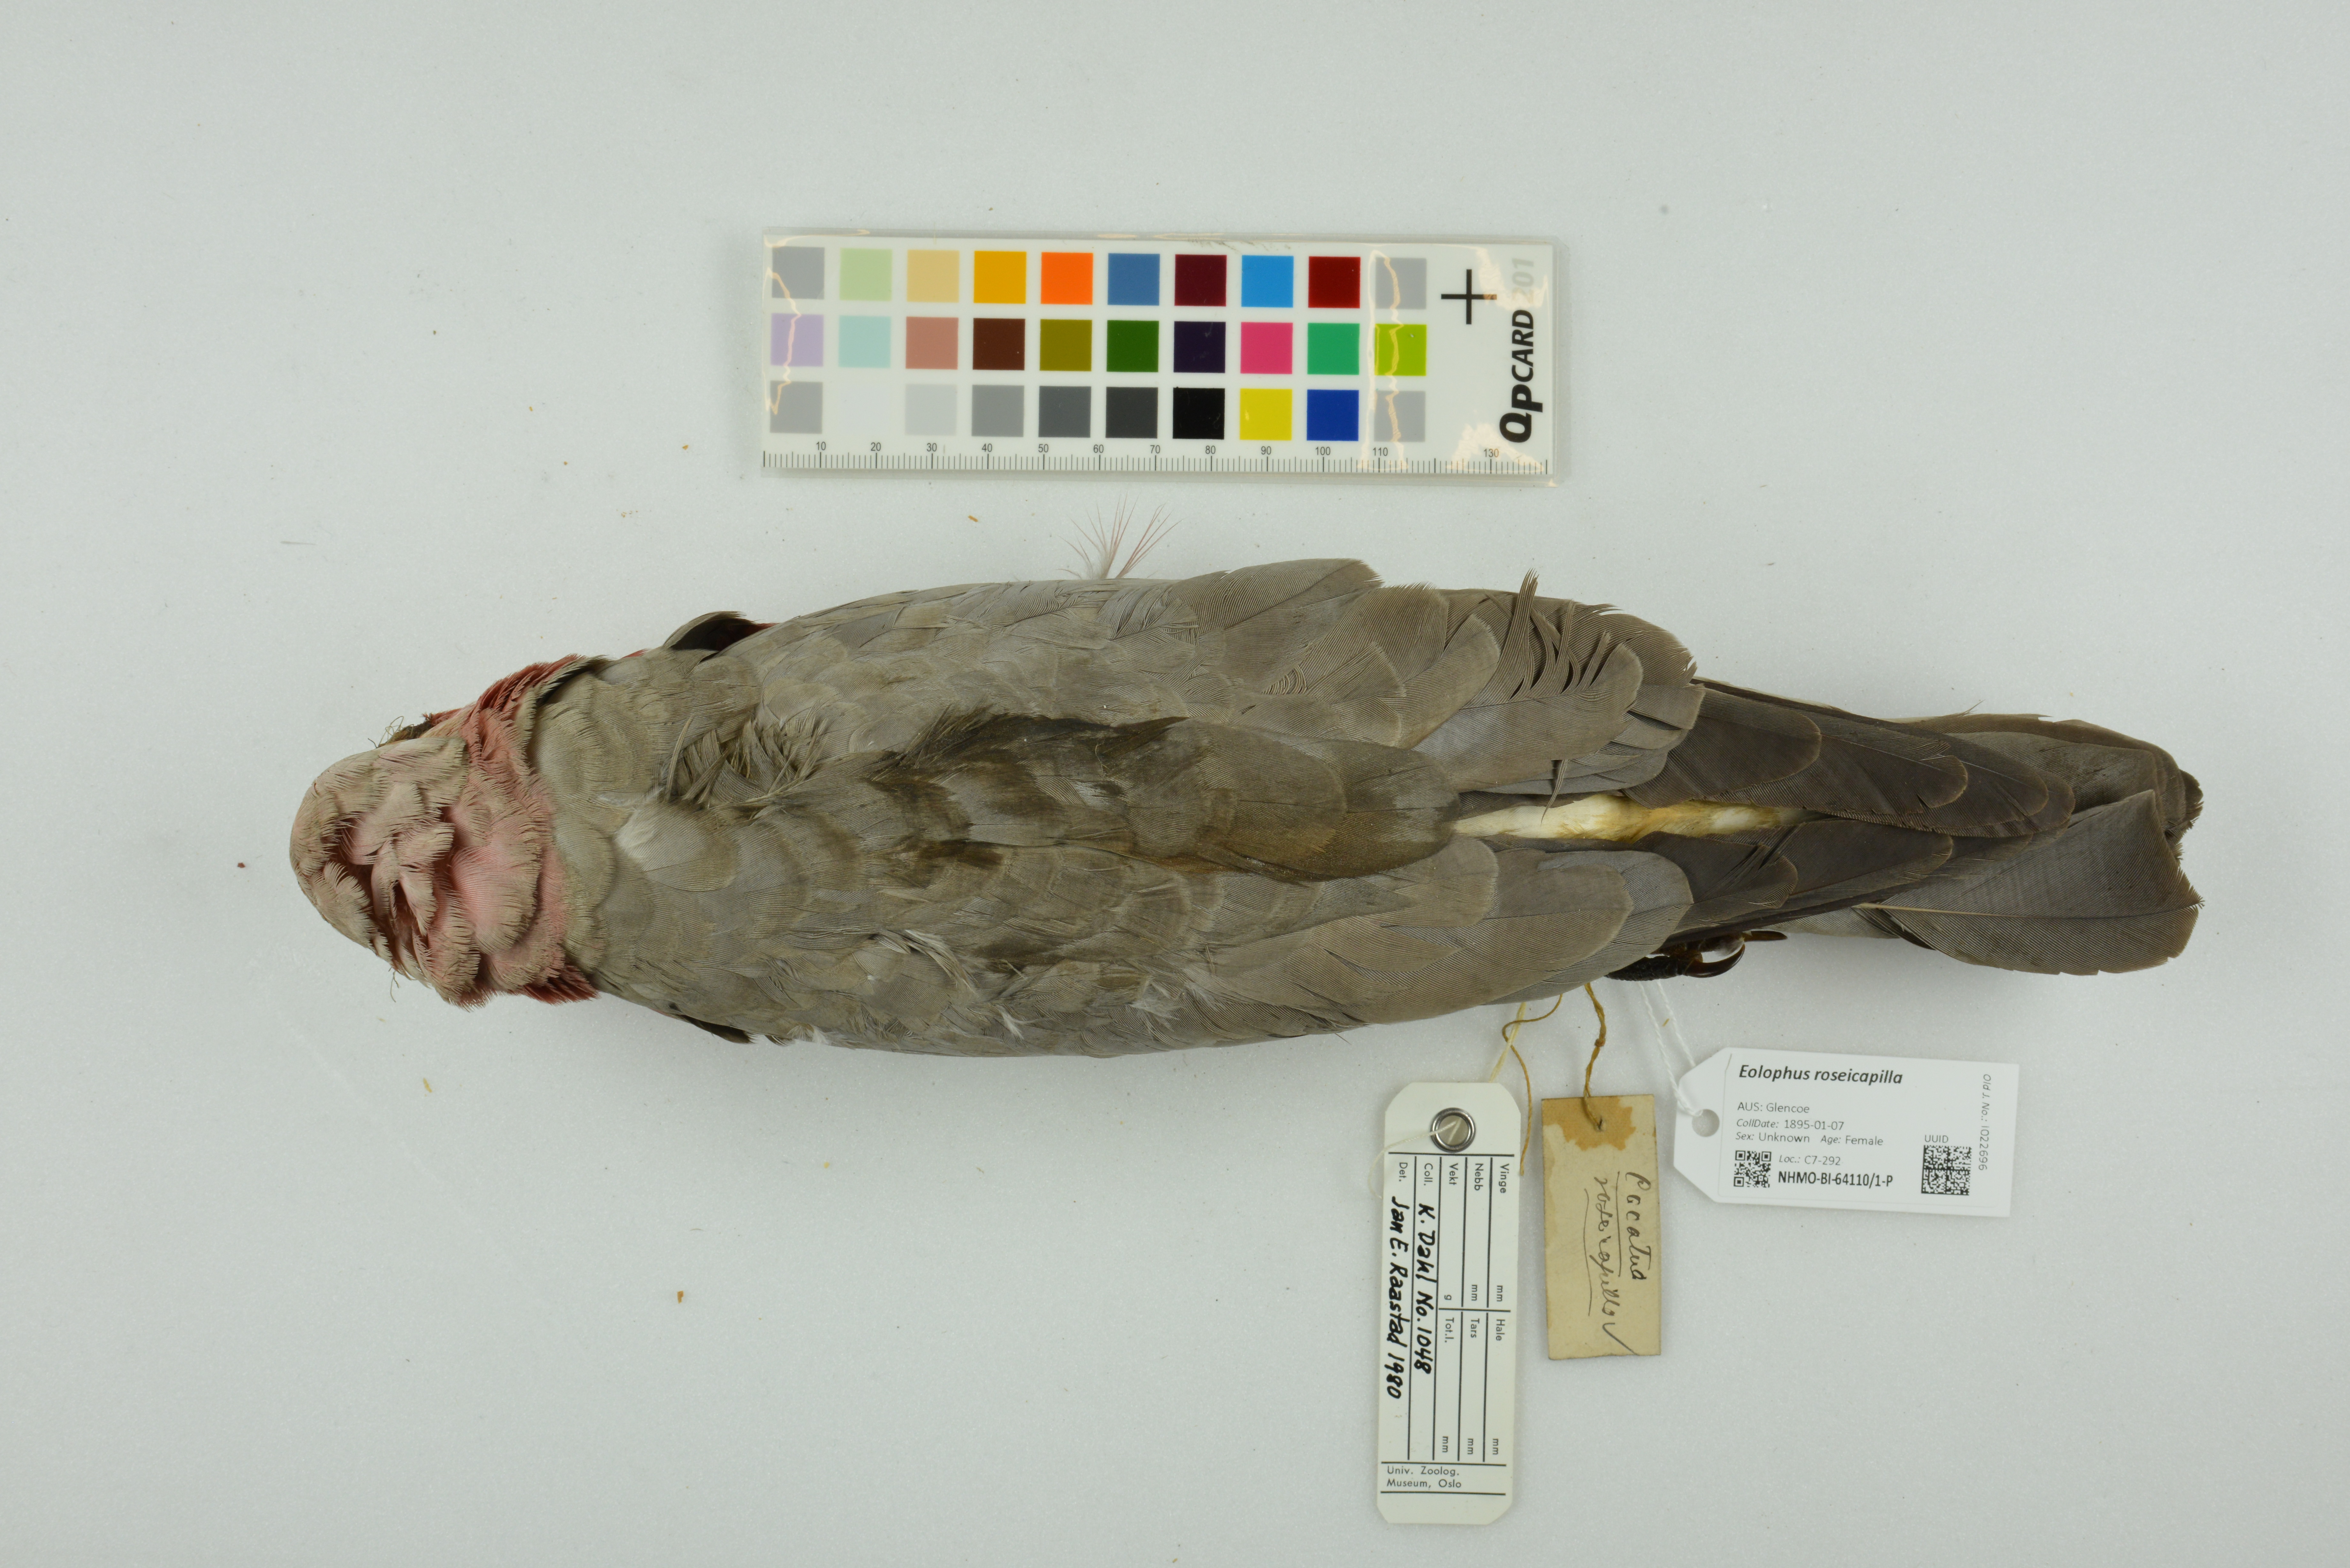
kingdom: Animalia
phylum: Chordata
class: Aves
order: Psittaciformes
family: Psittacidae
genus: Eolophus
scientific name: Eolophus roseicapilla
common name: Galah
